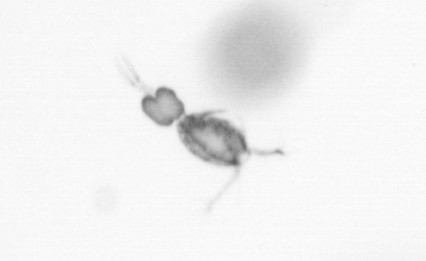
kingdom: Animalia
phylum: Arthropoda
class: Copepoda
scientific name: Copepoda
